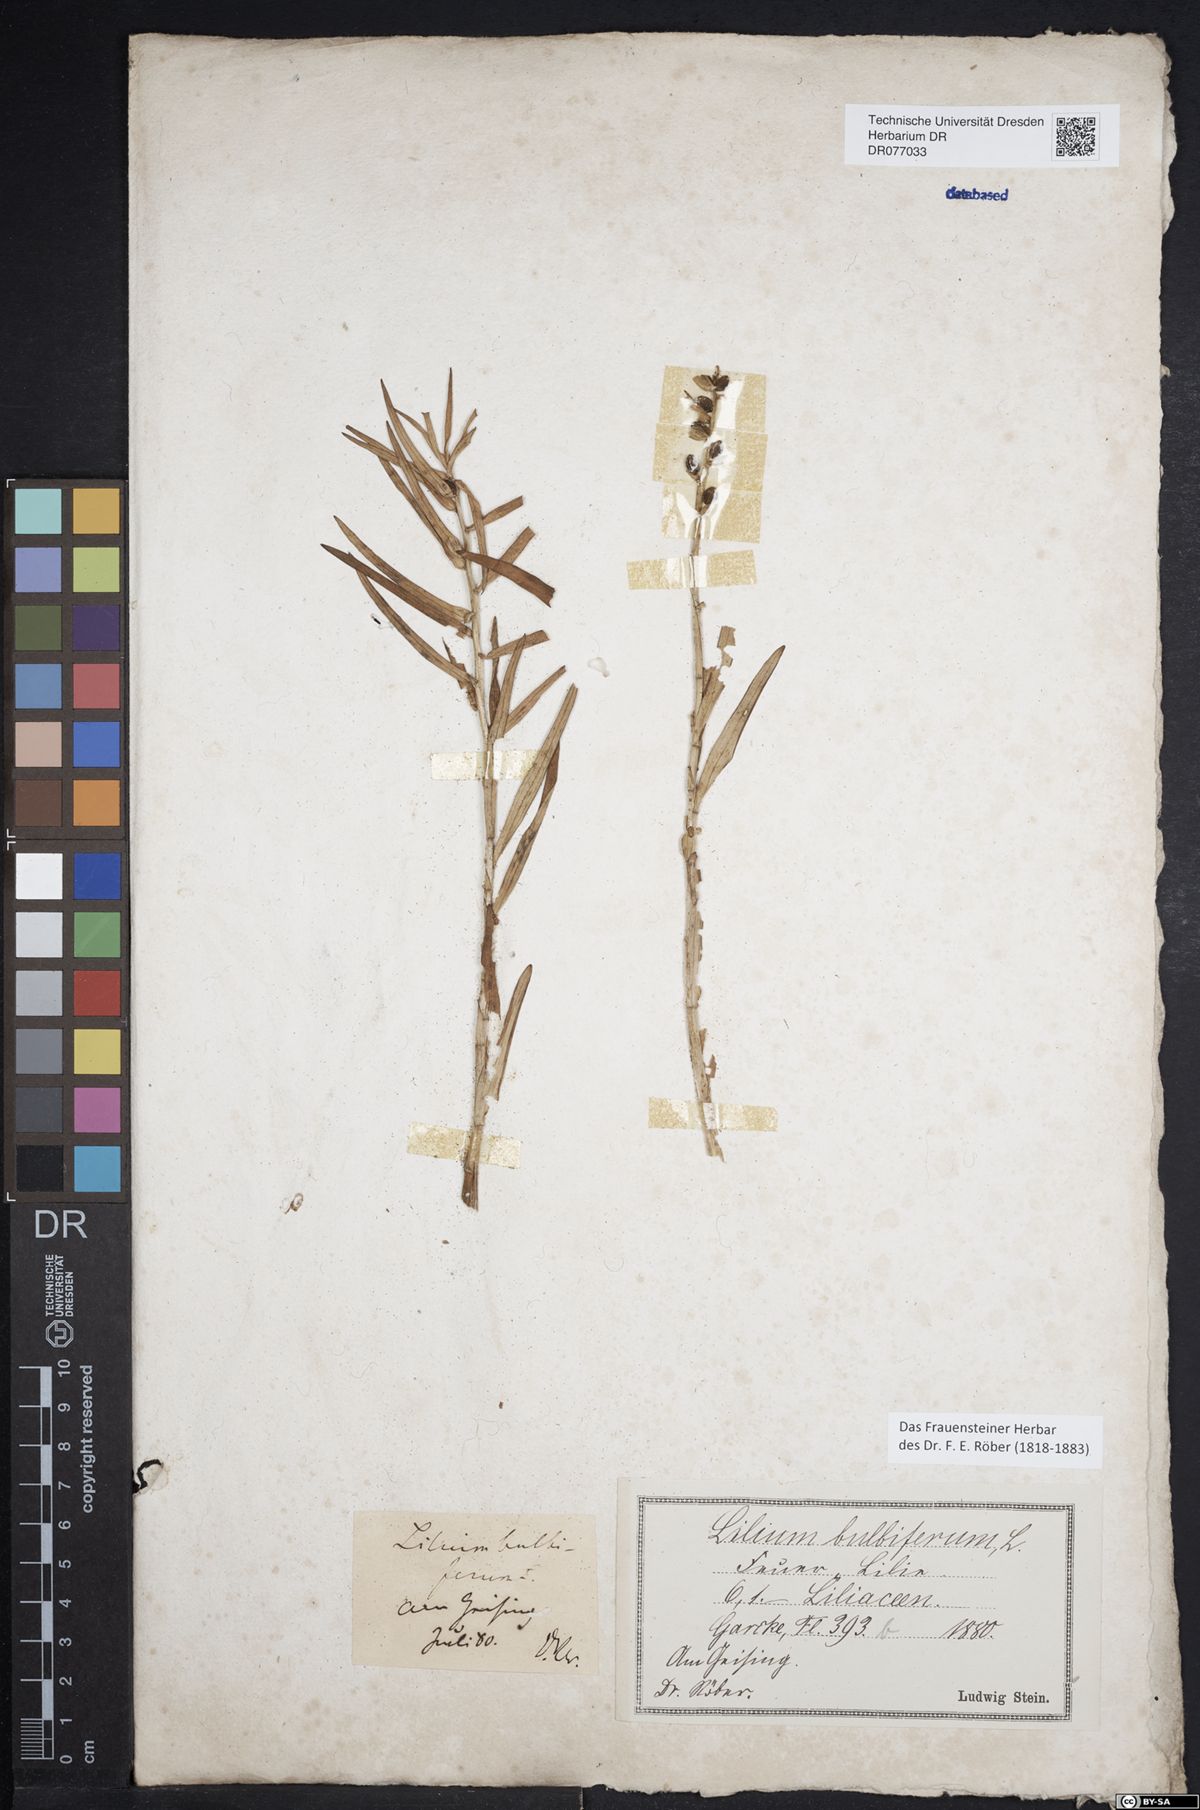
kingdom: Plantae
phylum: Tracheophyta
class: Liliopsida
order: Liliales
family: Liliaceae
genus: Lilium
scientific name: Lilium bulbiferum
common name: Orange lily
